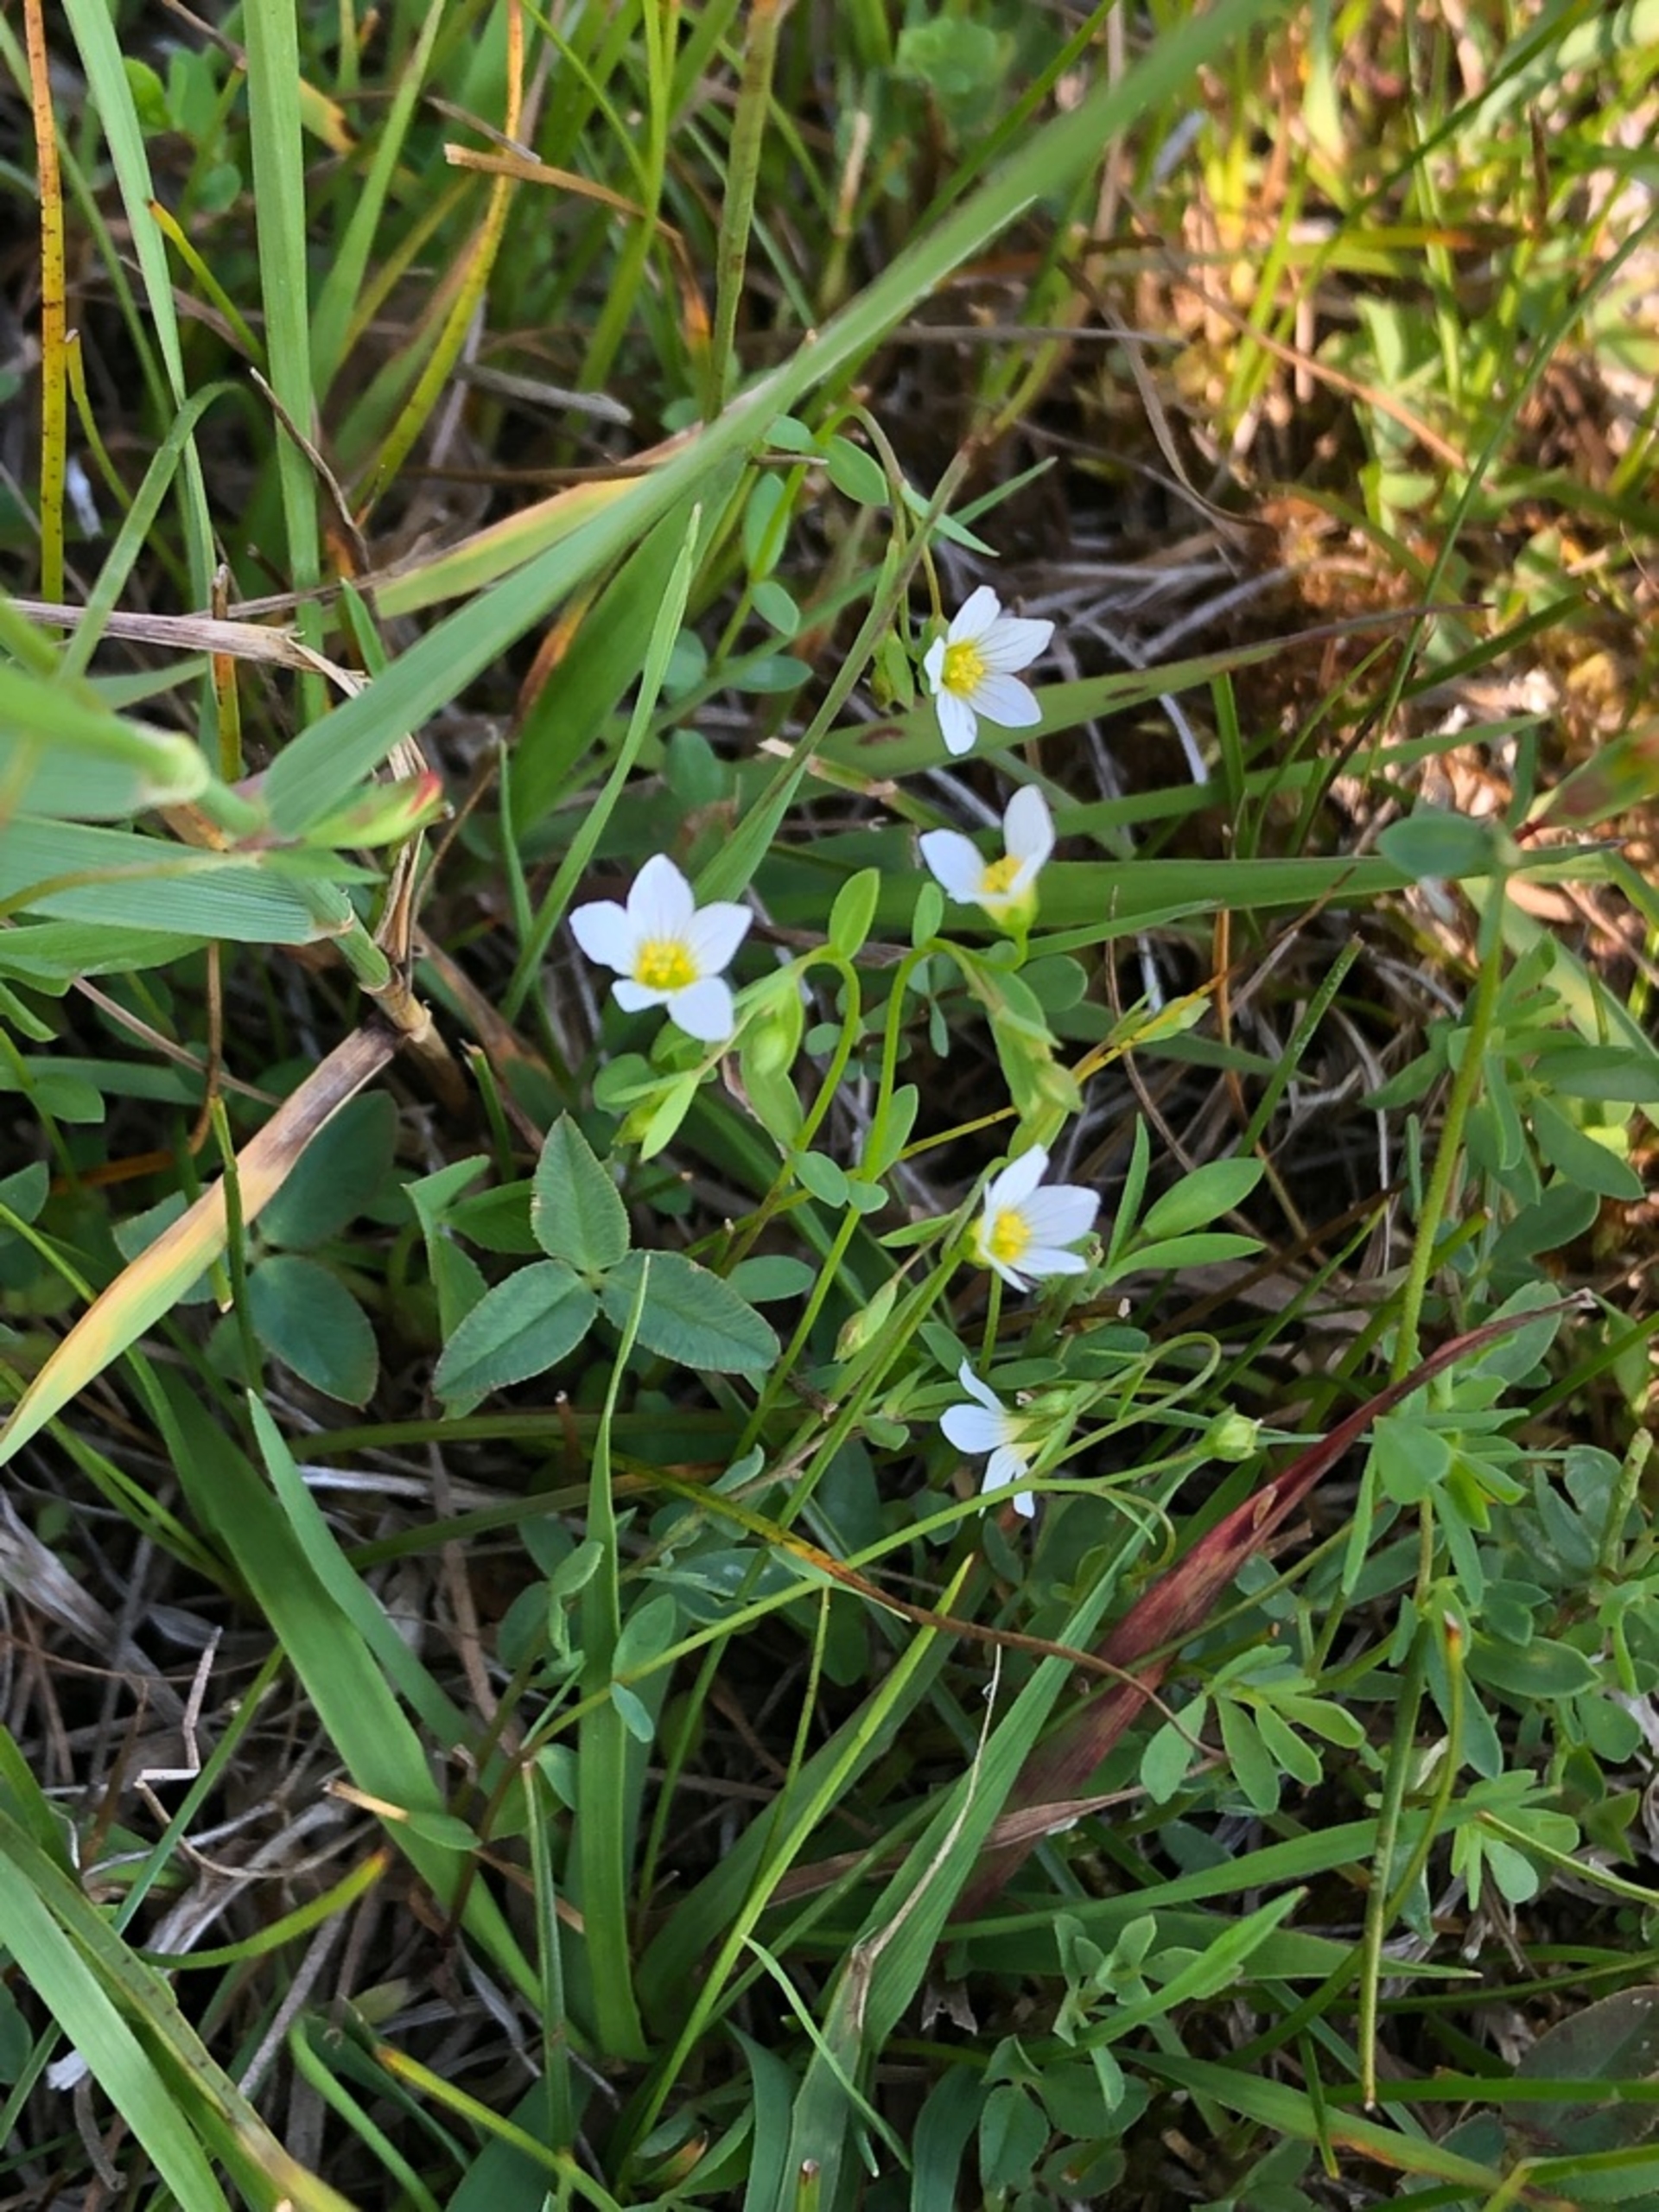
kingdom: Plantae
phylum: Tracheophyta
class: Magnoliopsida
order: Malpighiales
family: Linaceae
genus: Linum
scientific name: Linum catharticum
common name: Vild hør
